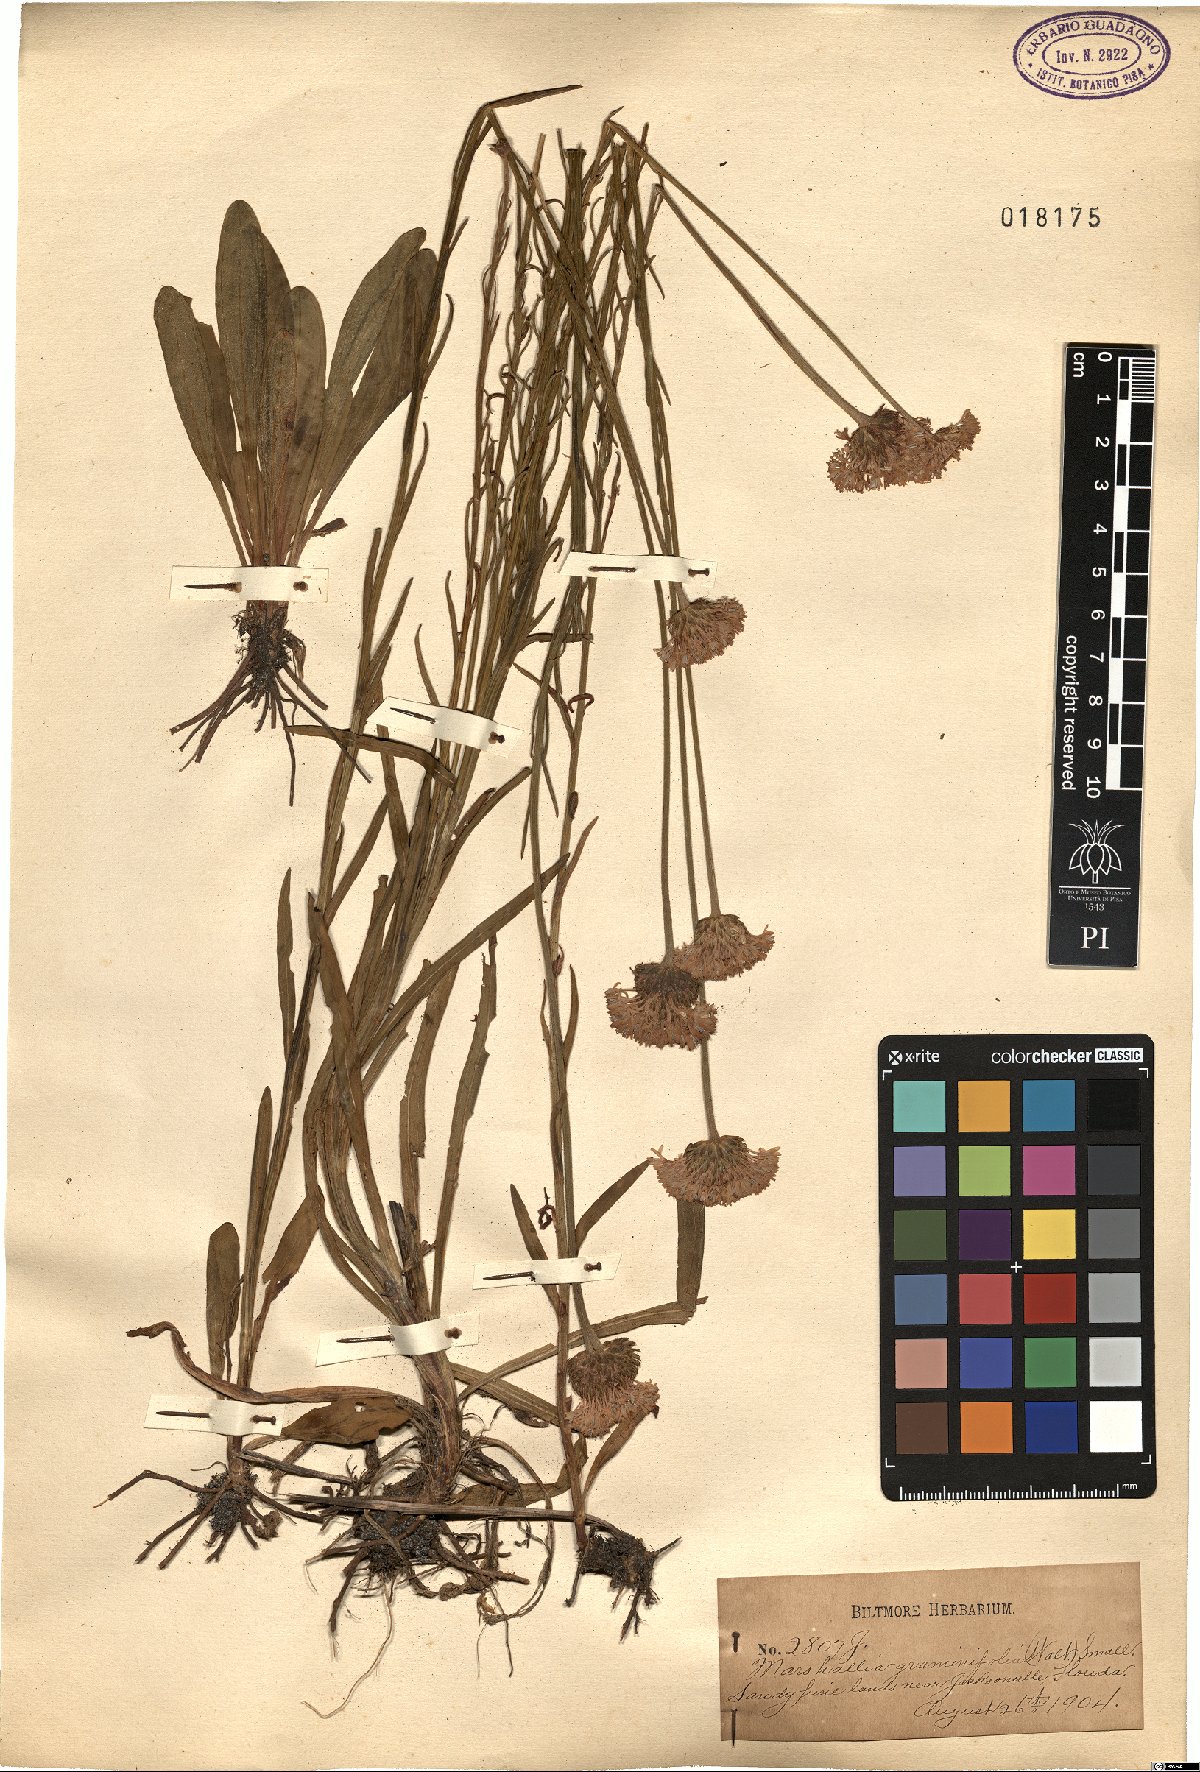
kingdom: Plantae
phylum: Tracheophyta
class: Magnoliopsida
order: Asterales
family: Asteraceae
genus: Marshallia
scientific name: Marshallia graminifolia
